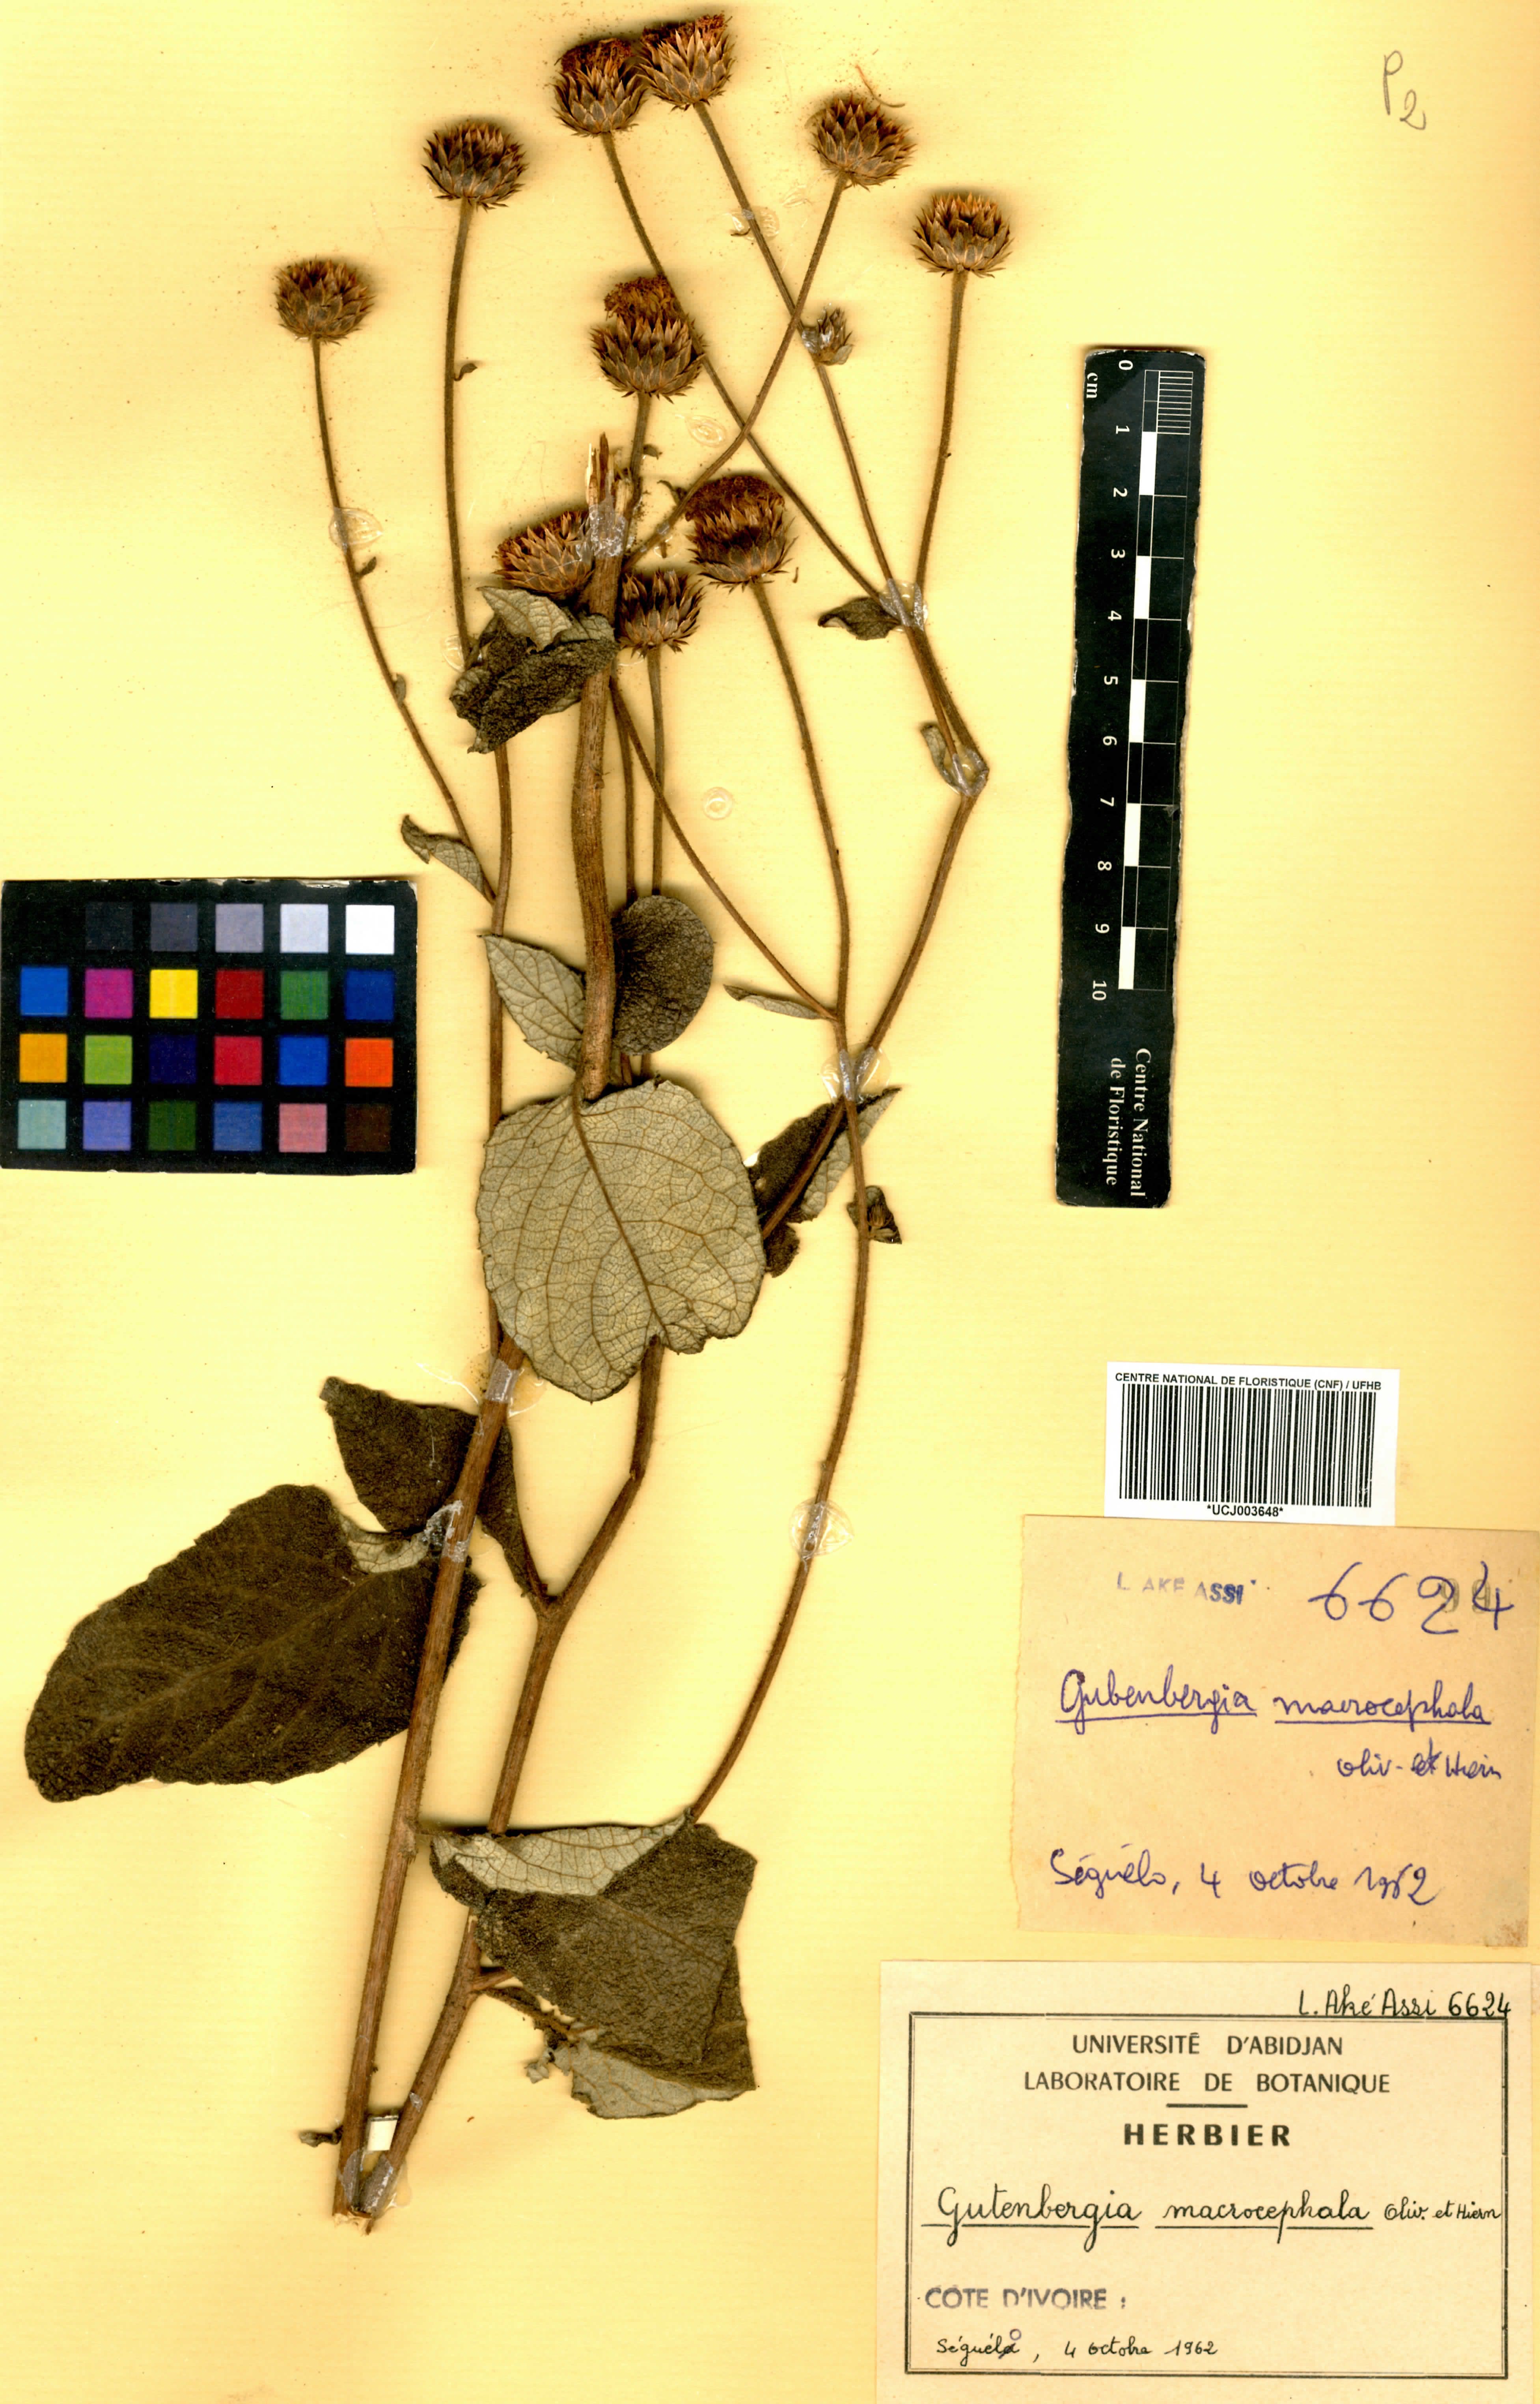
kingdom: Plantae
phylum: Tracheophyta
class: Magnoliopsida
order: Asterales
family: Asteraceae
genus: Kinghamia
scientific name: Kinghamia macrocephala
